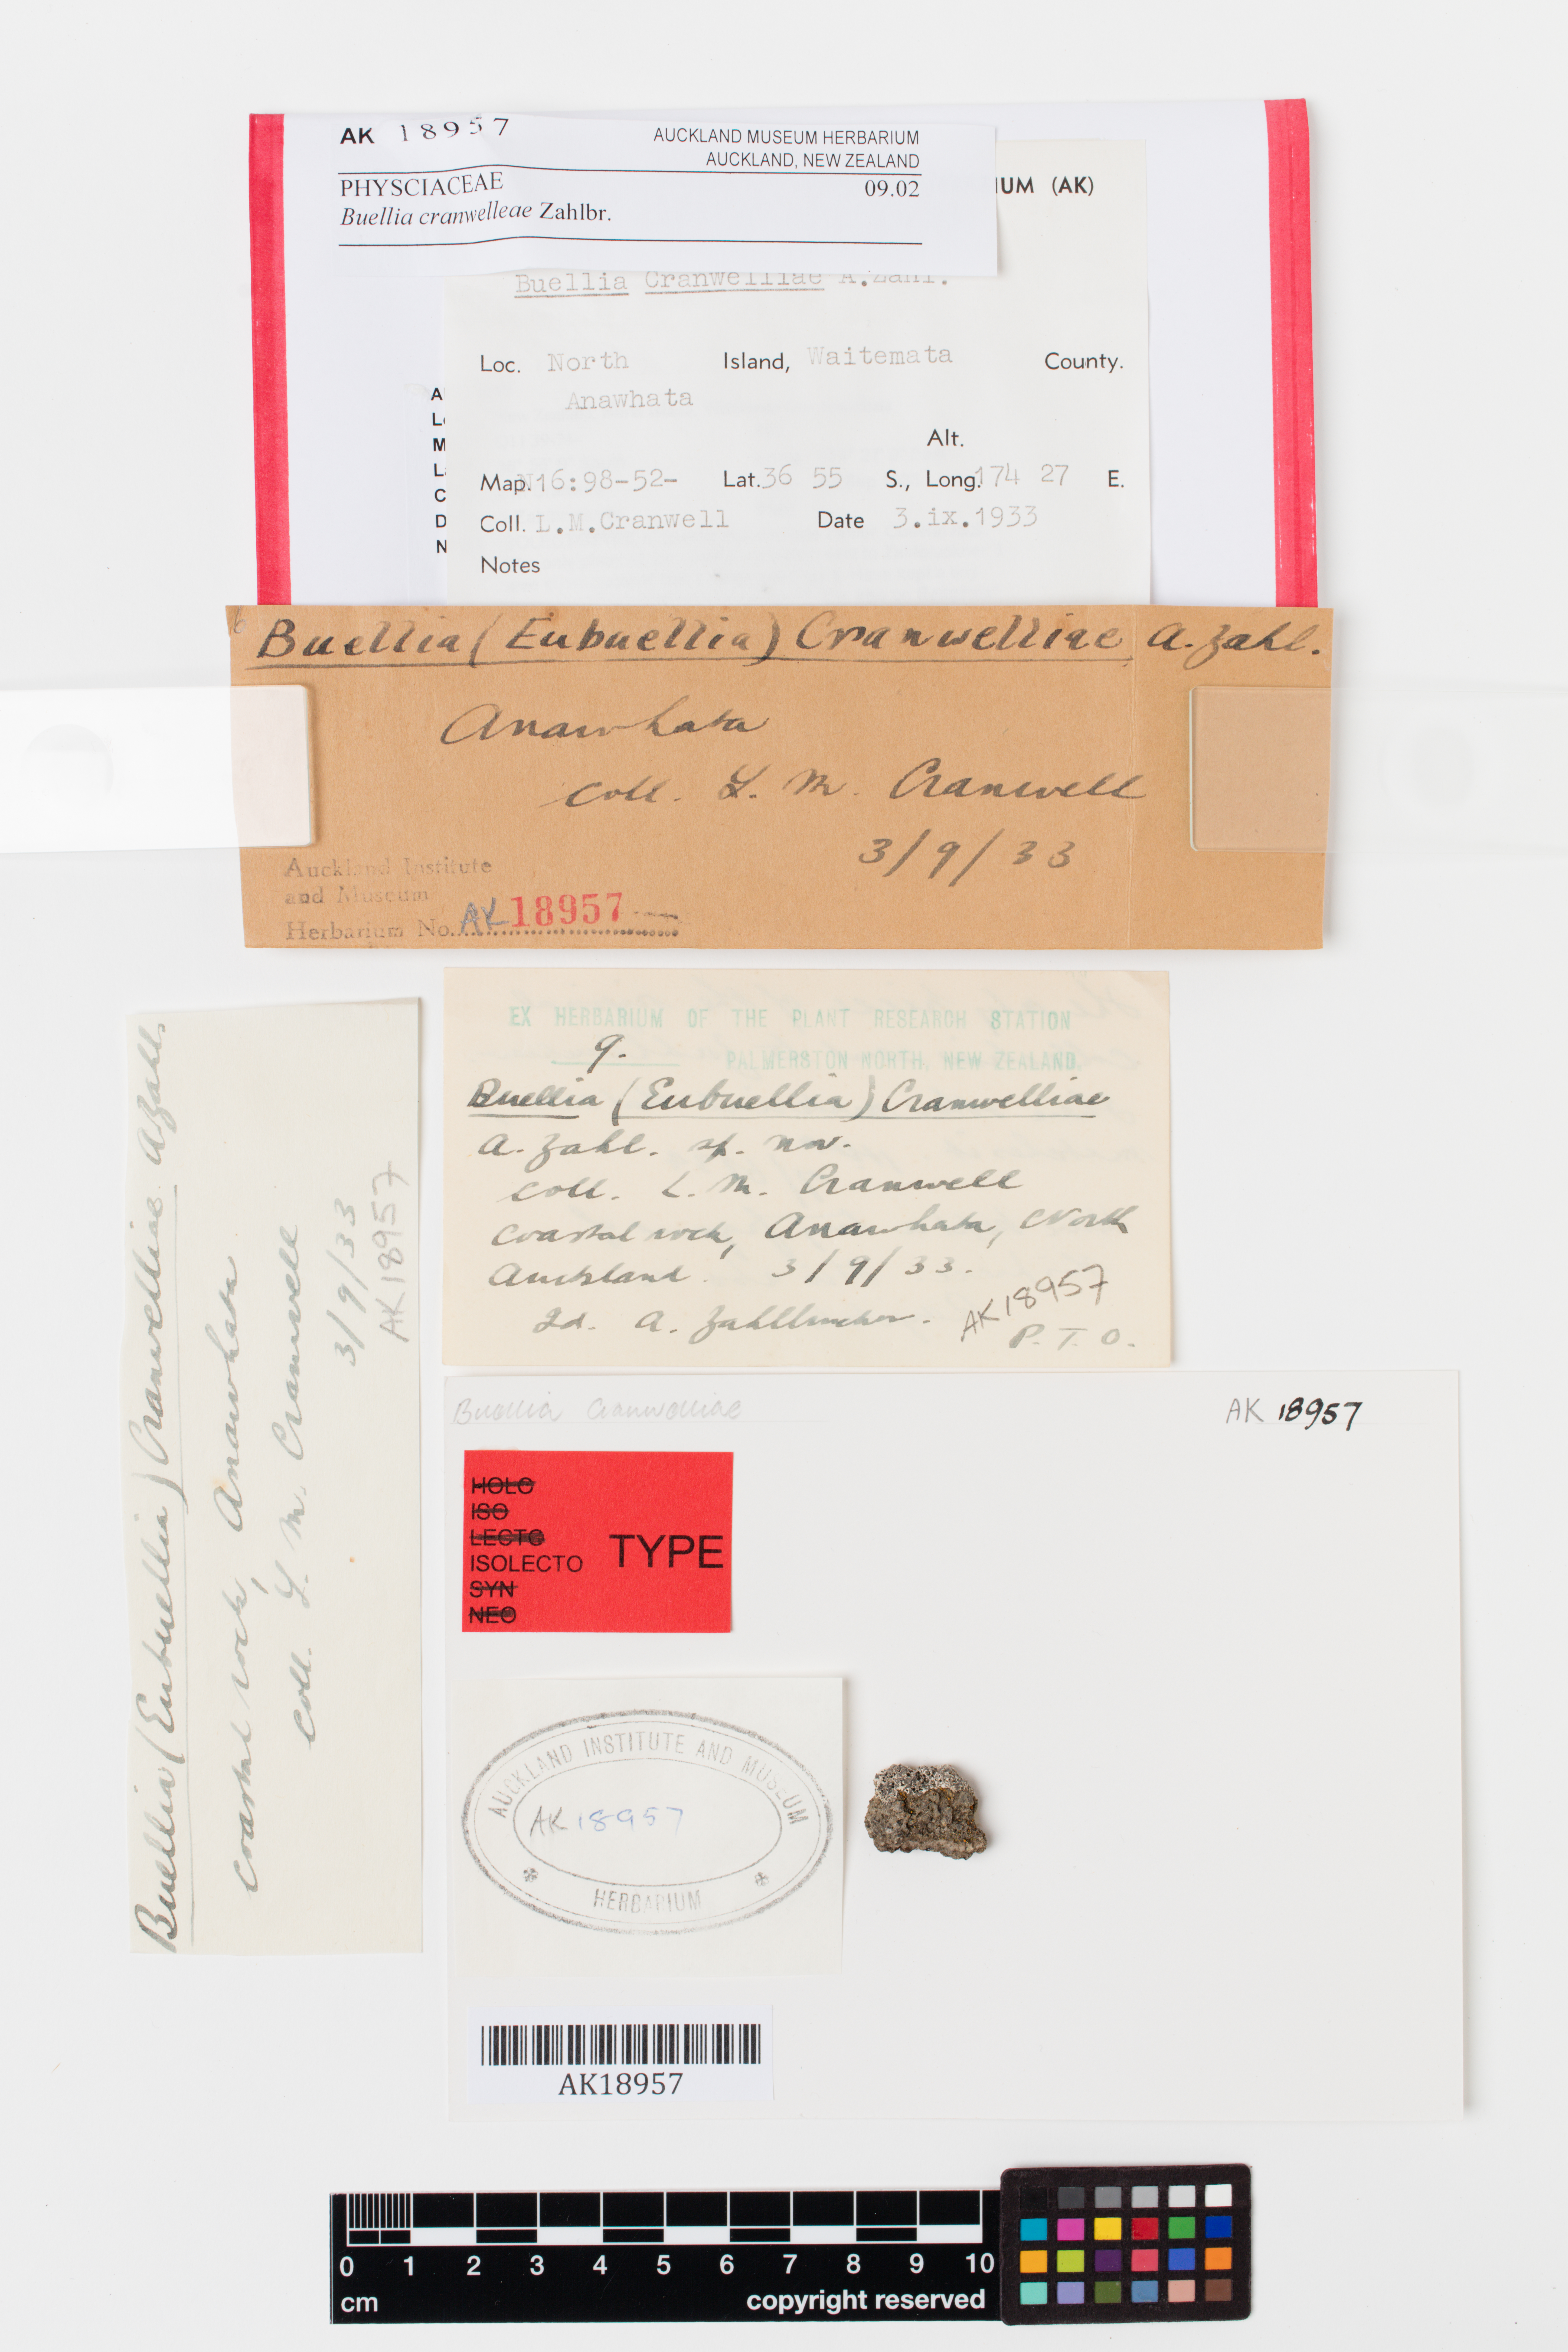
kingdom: Fungi
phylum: Ascomycota
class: Lecanoromycetes
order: Caliciales
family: Physciaceae
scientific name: Physciaceae
